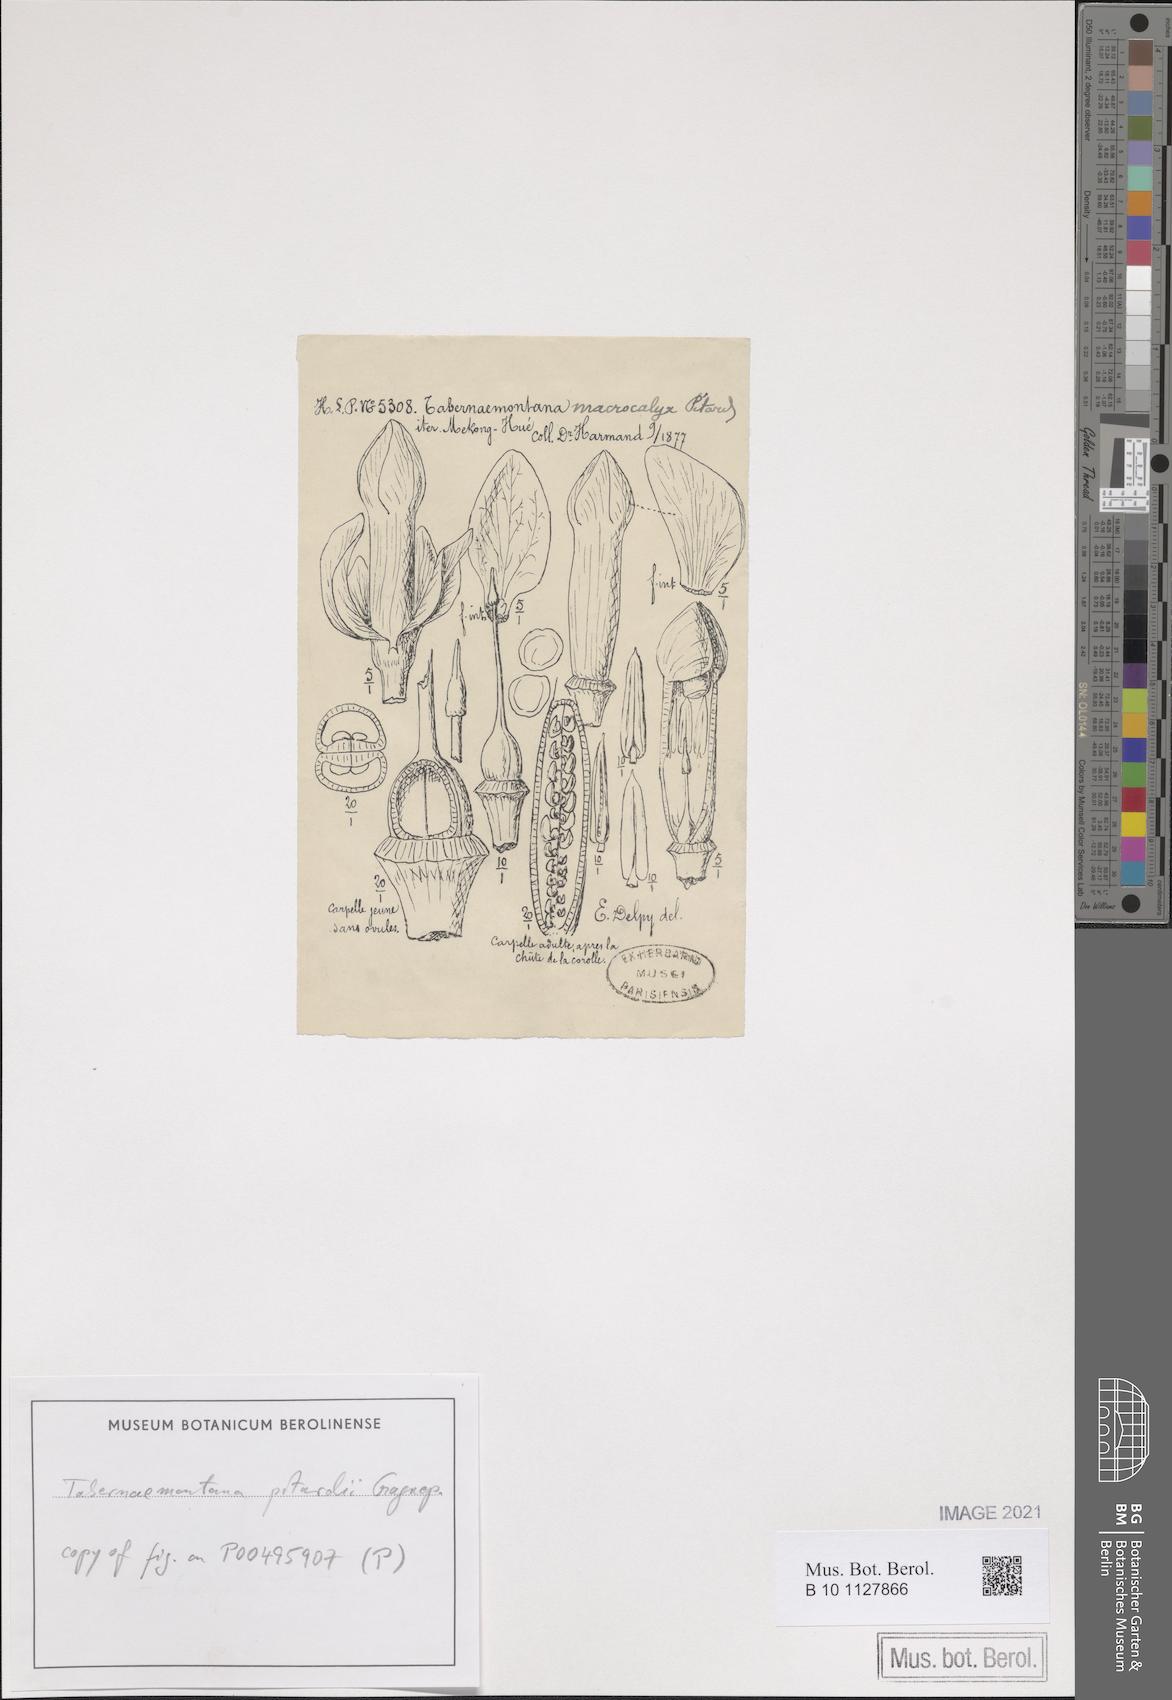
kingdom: Plantae
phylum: Tracheophyta
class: Magnoliopsida
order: Gentianales
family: Apocynaceae
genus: Tabernaemontana
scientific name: Tabernaemontana rostrata
